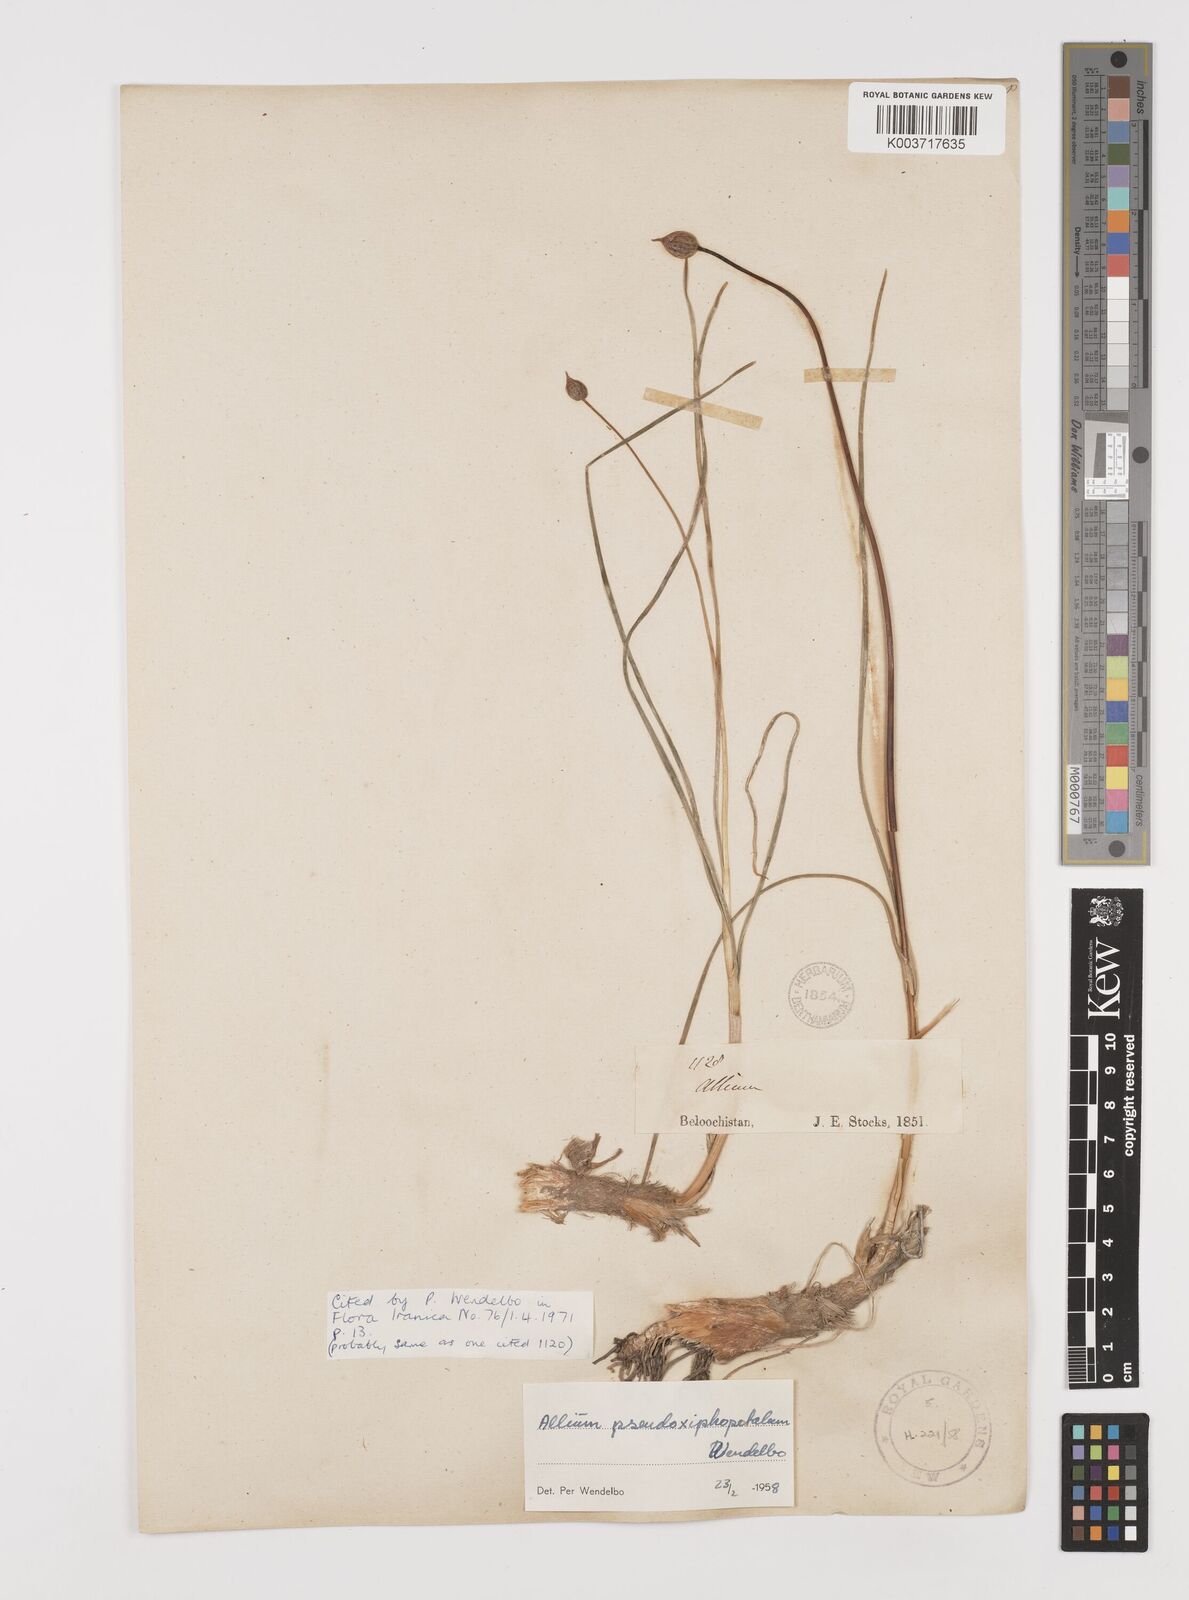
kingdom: Plantae
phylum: Tracheophyta
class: Liliopsida
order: Asparagales
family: Amaryllidaceae
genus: Allium
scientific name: Allium dolichostylum
